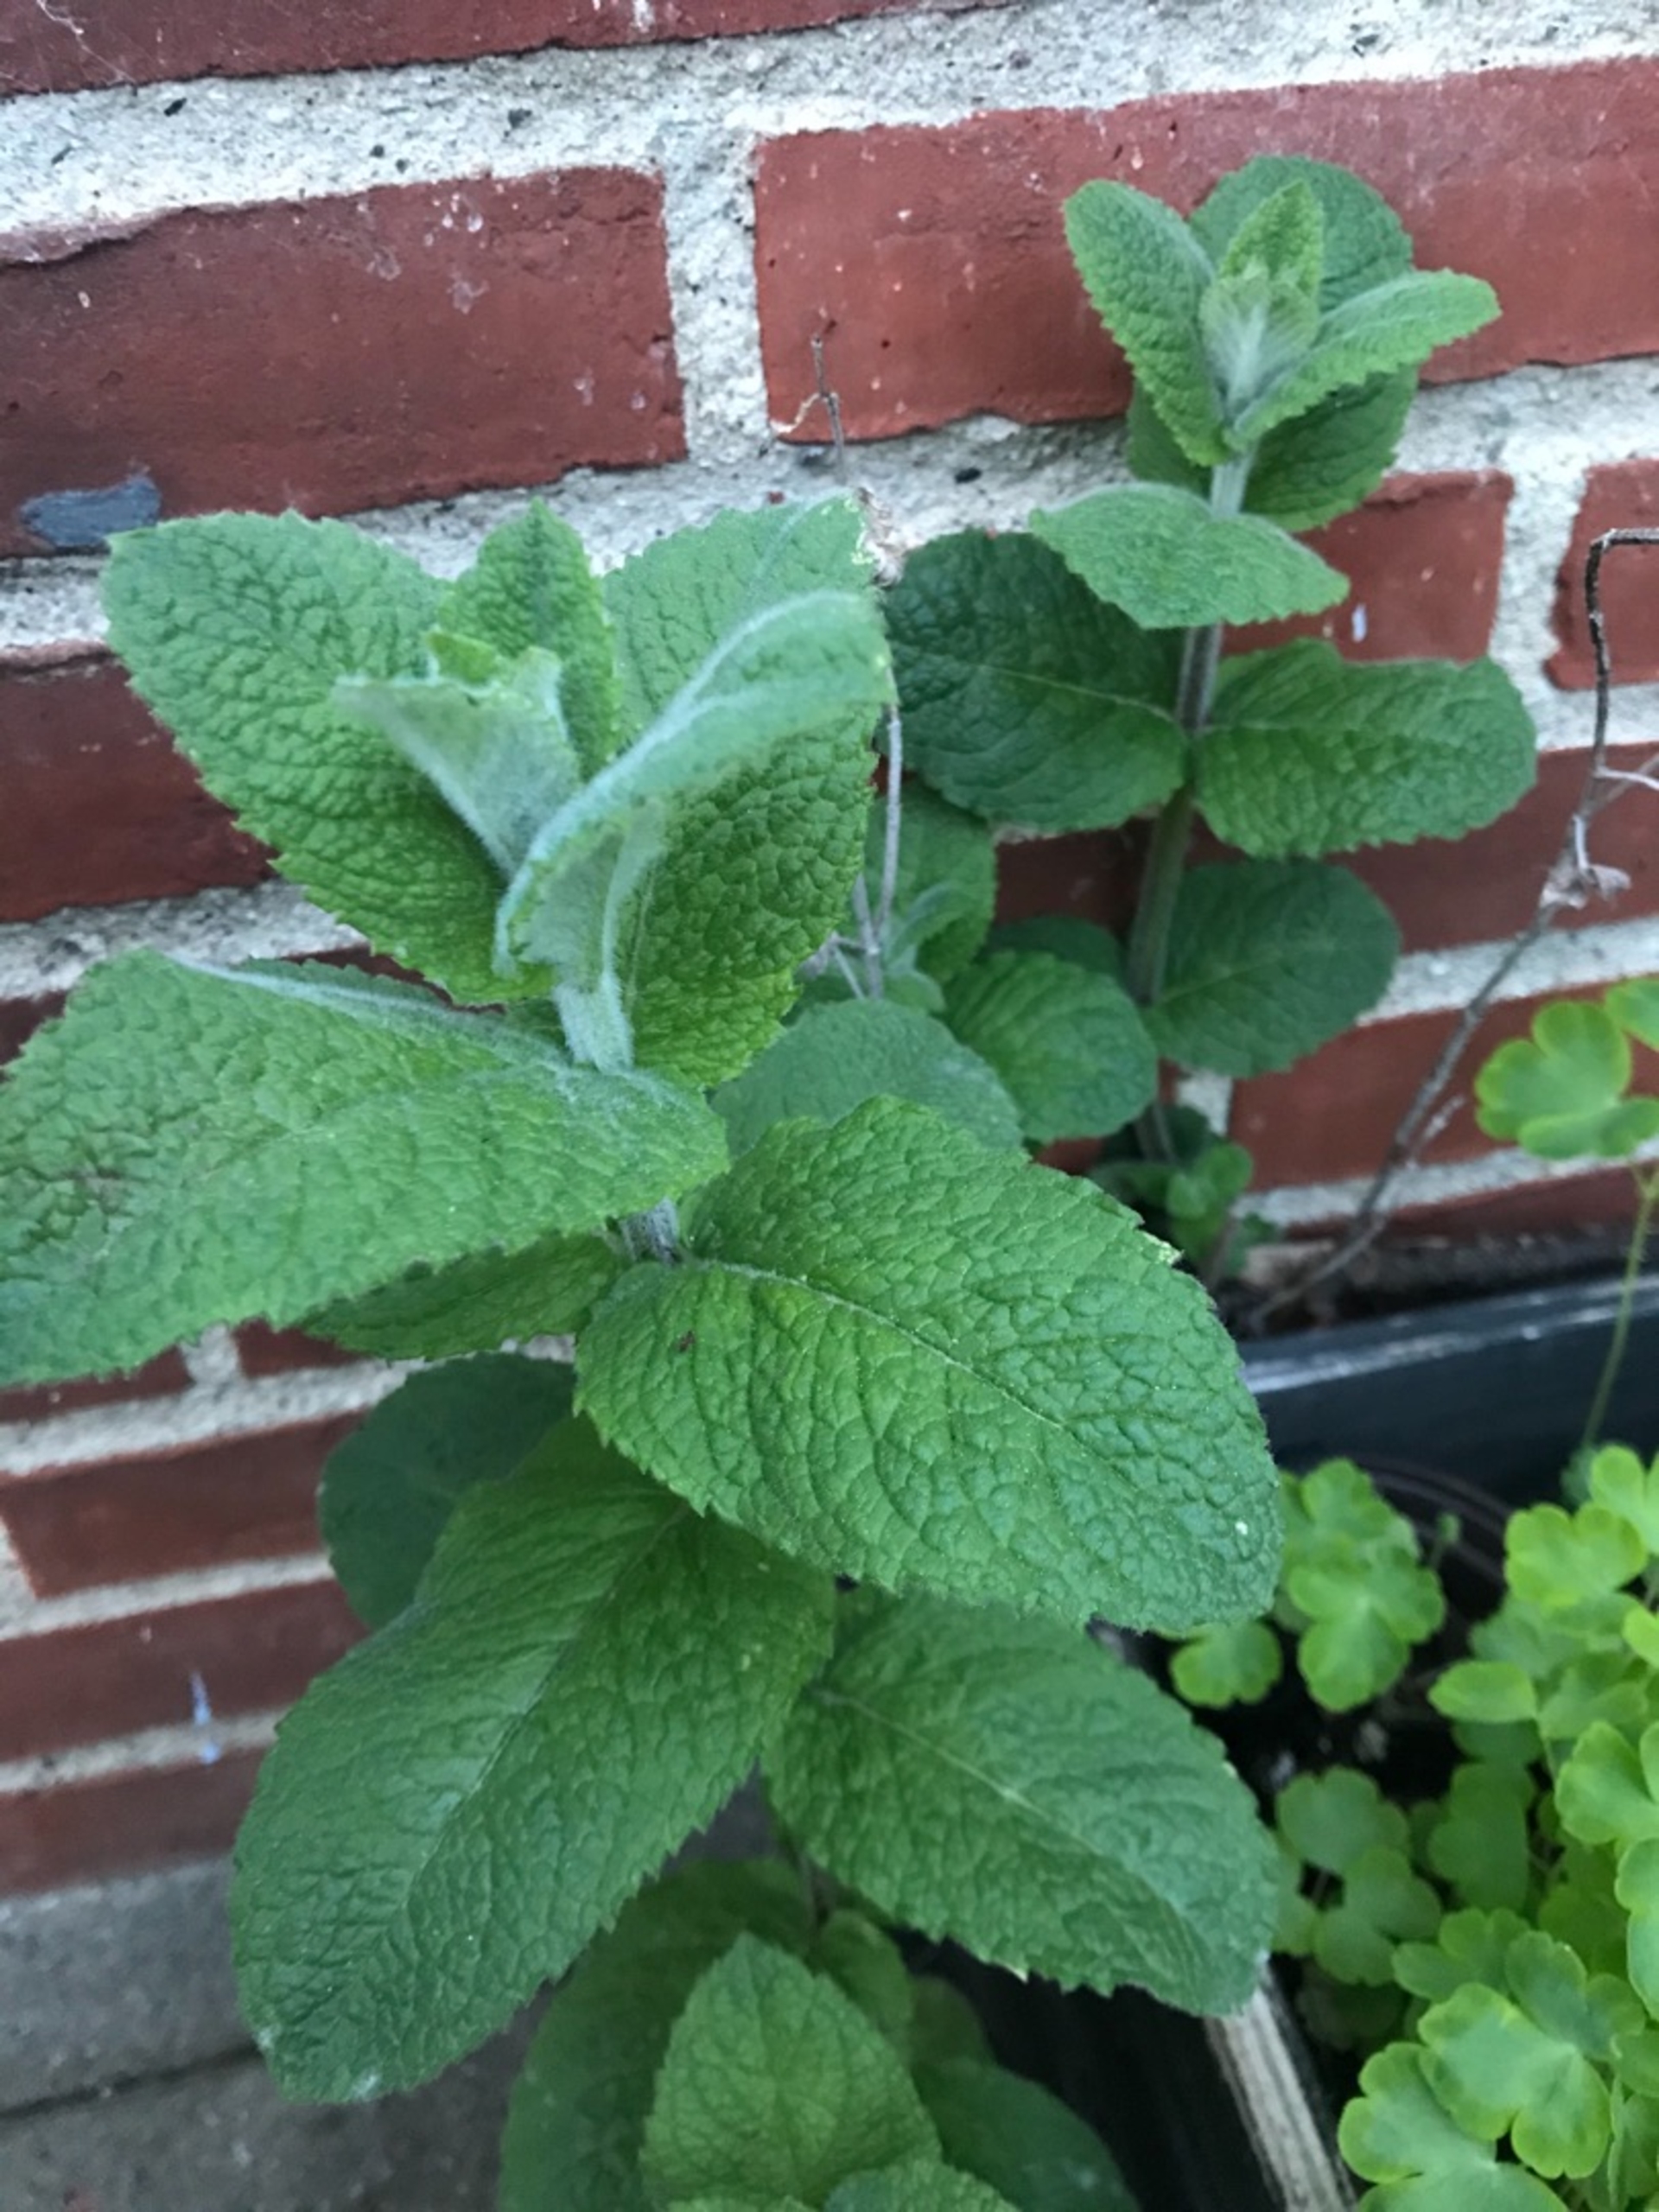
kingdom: Plantae
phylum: Tracheophyta
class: Magnoliopsida
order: Lamiales
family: Lamiaceae
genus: Mentha
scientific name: Mentha rotundifolia
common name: Grå mynte × rundbladet mynte
